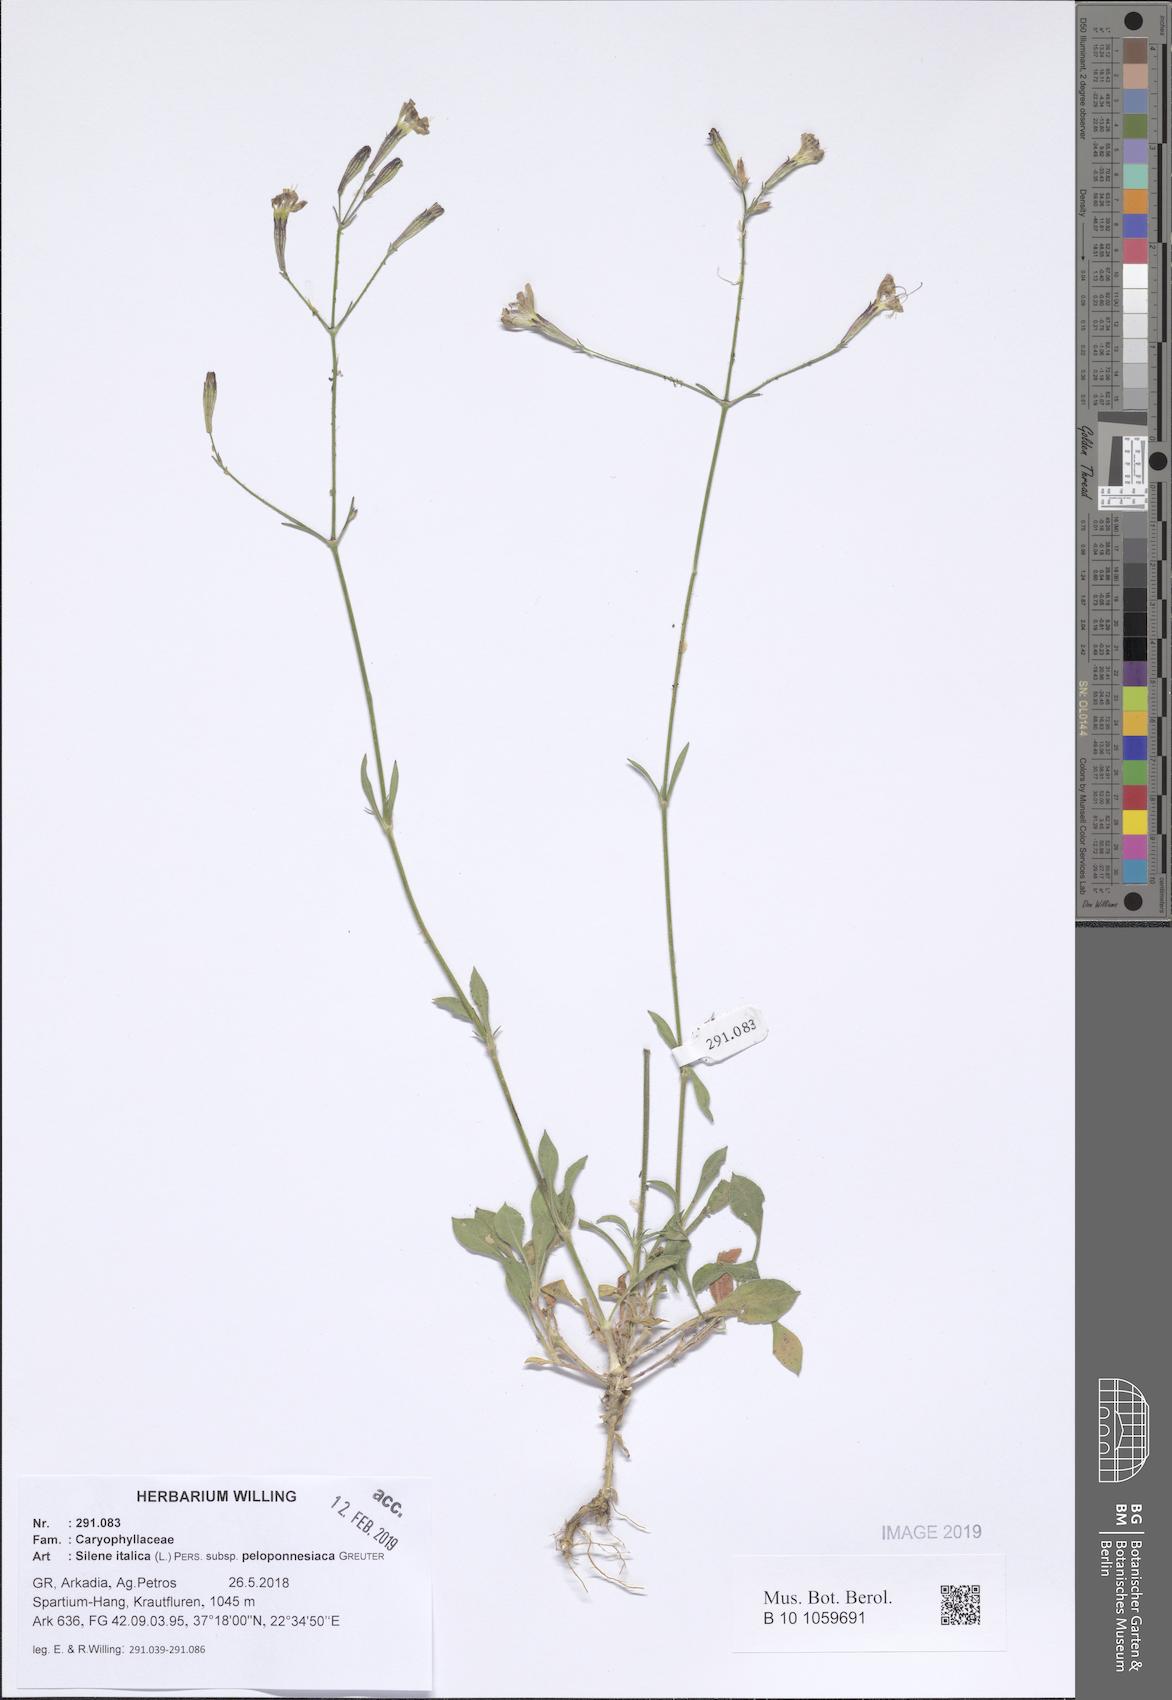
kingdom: Plantae
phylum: Tracheophyta
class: Magnoliopsida
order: Caryophyllales
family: Caryophyllaceae
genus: Silene
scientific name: Silene italica
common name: Italian catchfly
